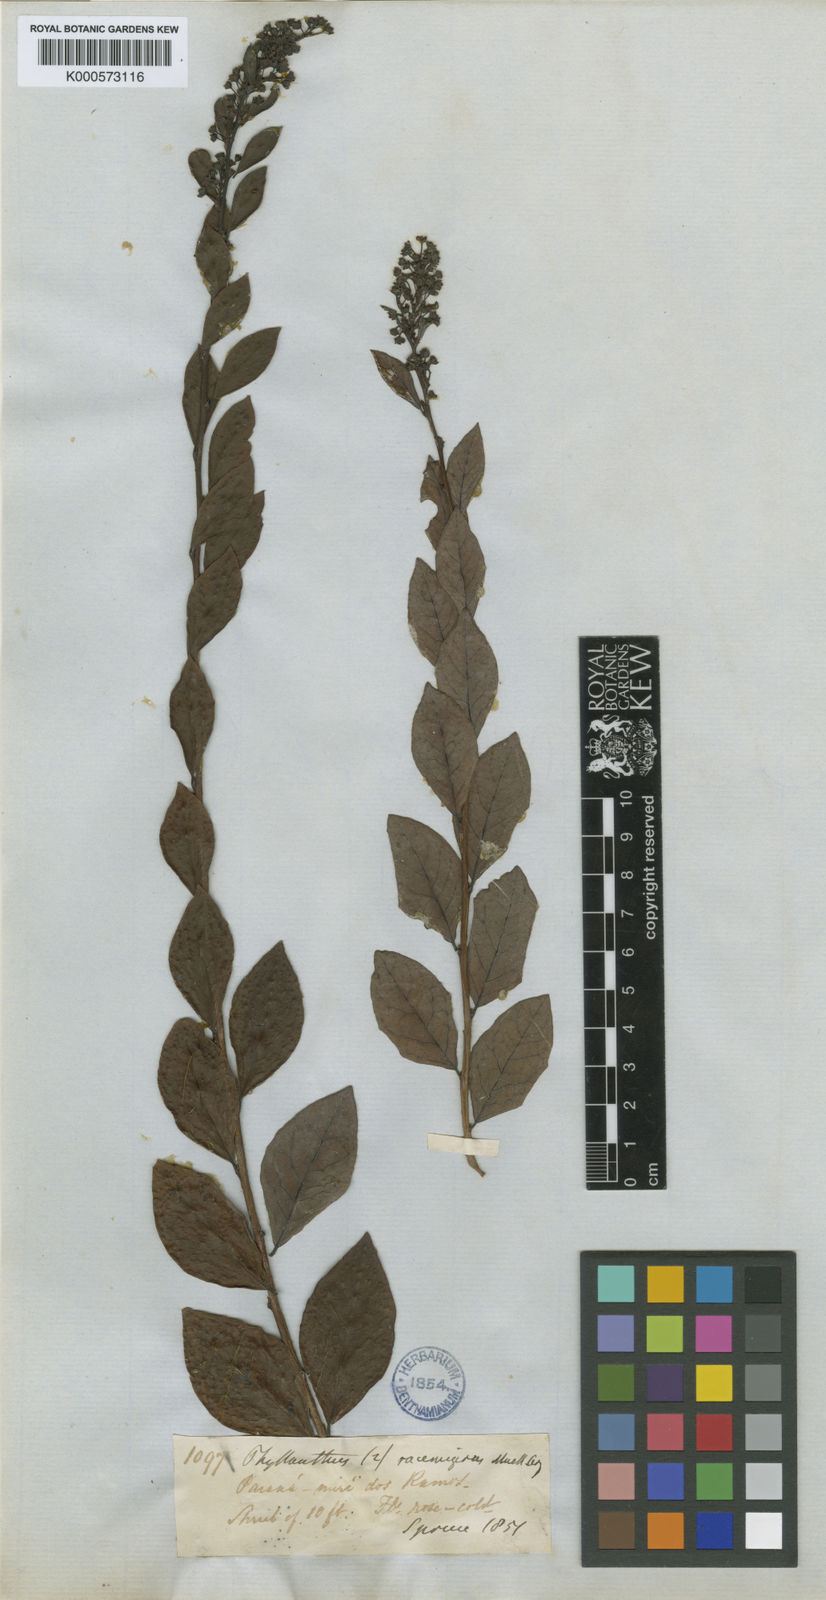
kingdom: Plantae
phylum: Tracheophyta
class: Magnoliopsida
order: Malpighiales
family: Phyllanthaceae
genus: Phyllanthus
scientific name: Phyllanthus
